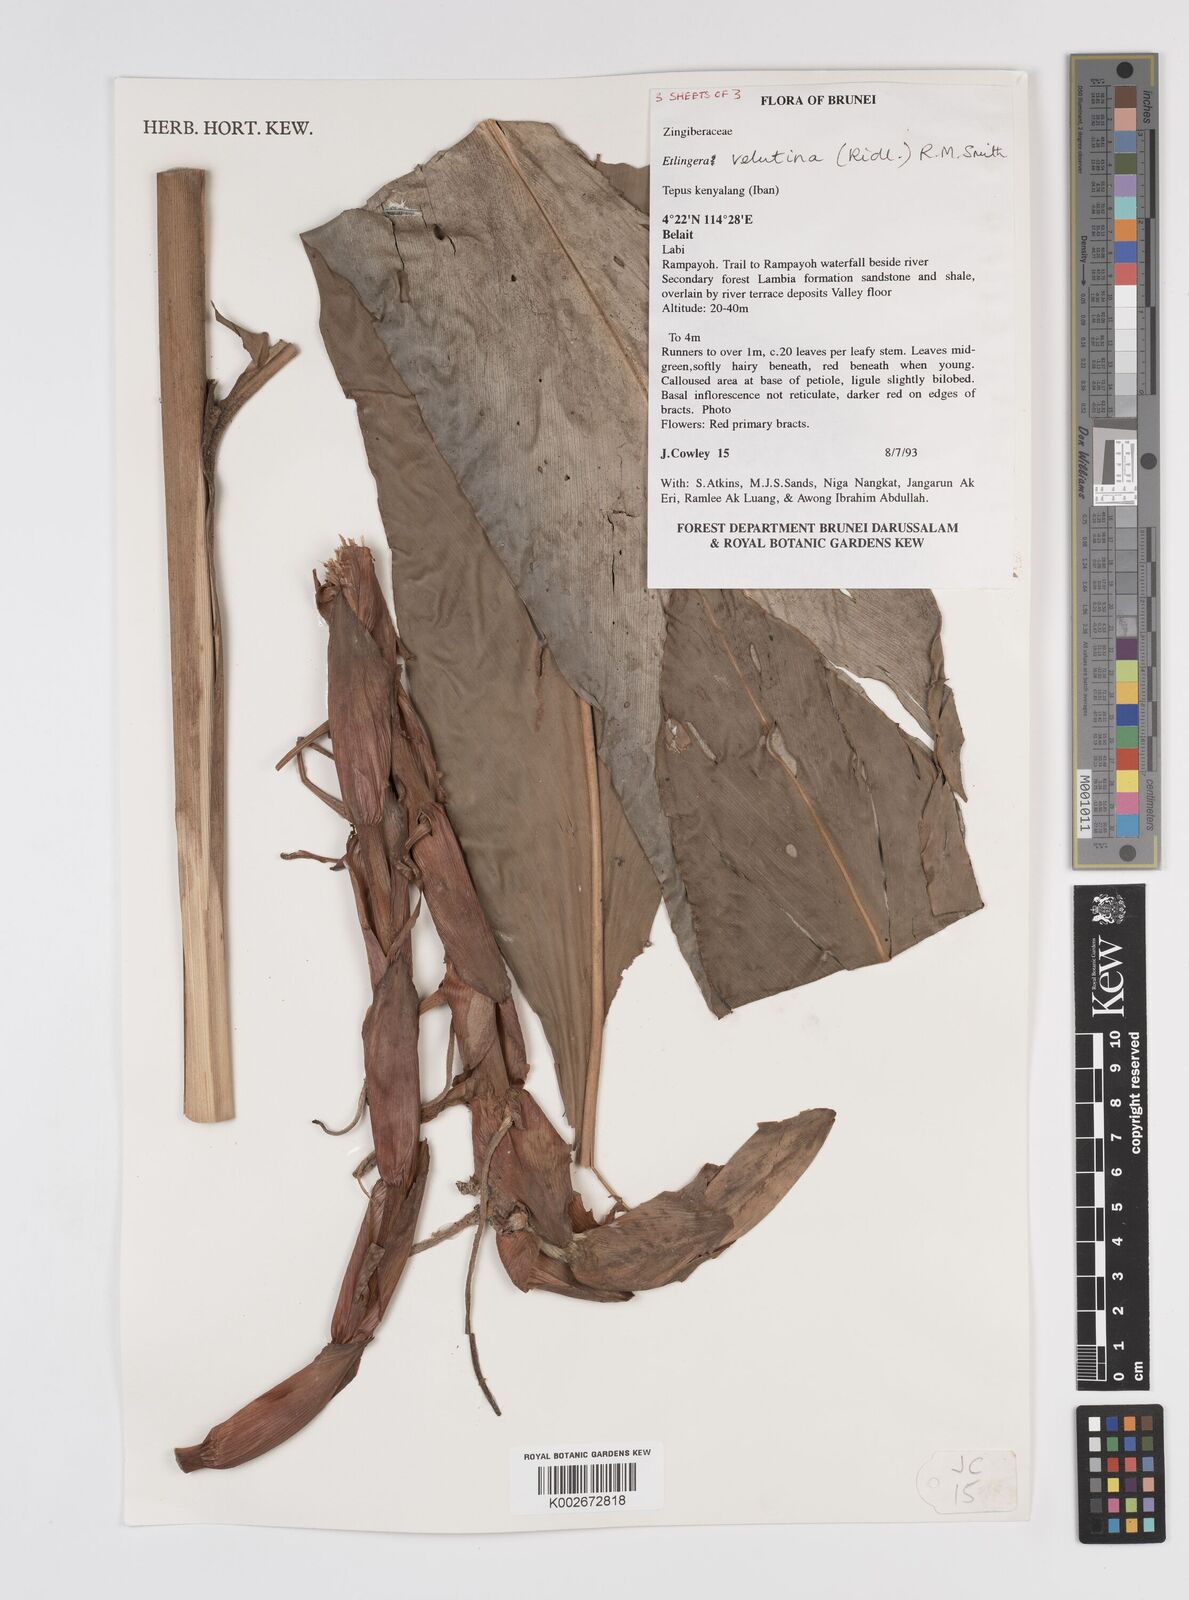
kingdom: Plantae
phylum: Tracheophyta
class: Liliopsida
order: Zingiberales
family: Zingiberaceae
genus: Etlingera
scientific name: Etlingera velutina
